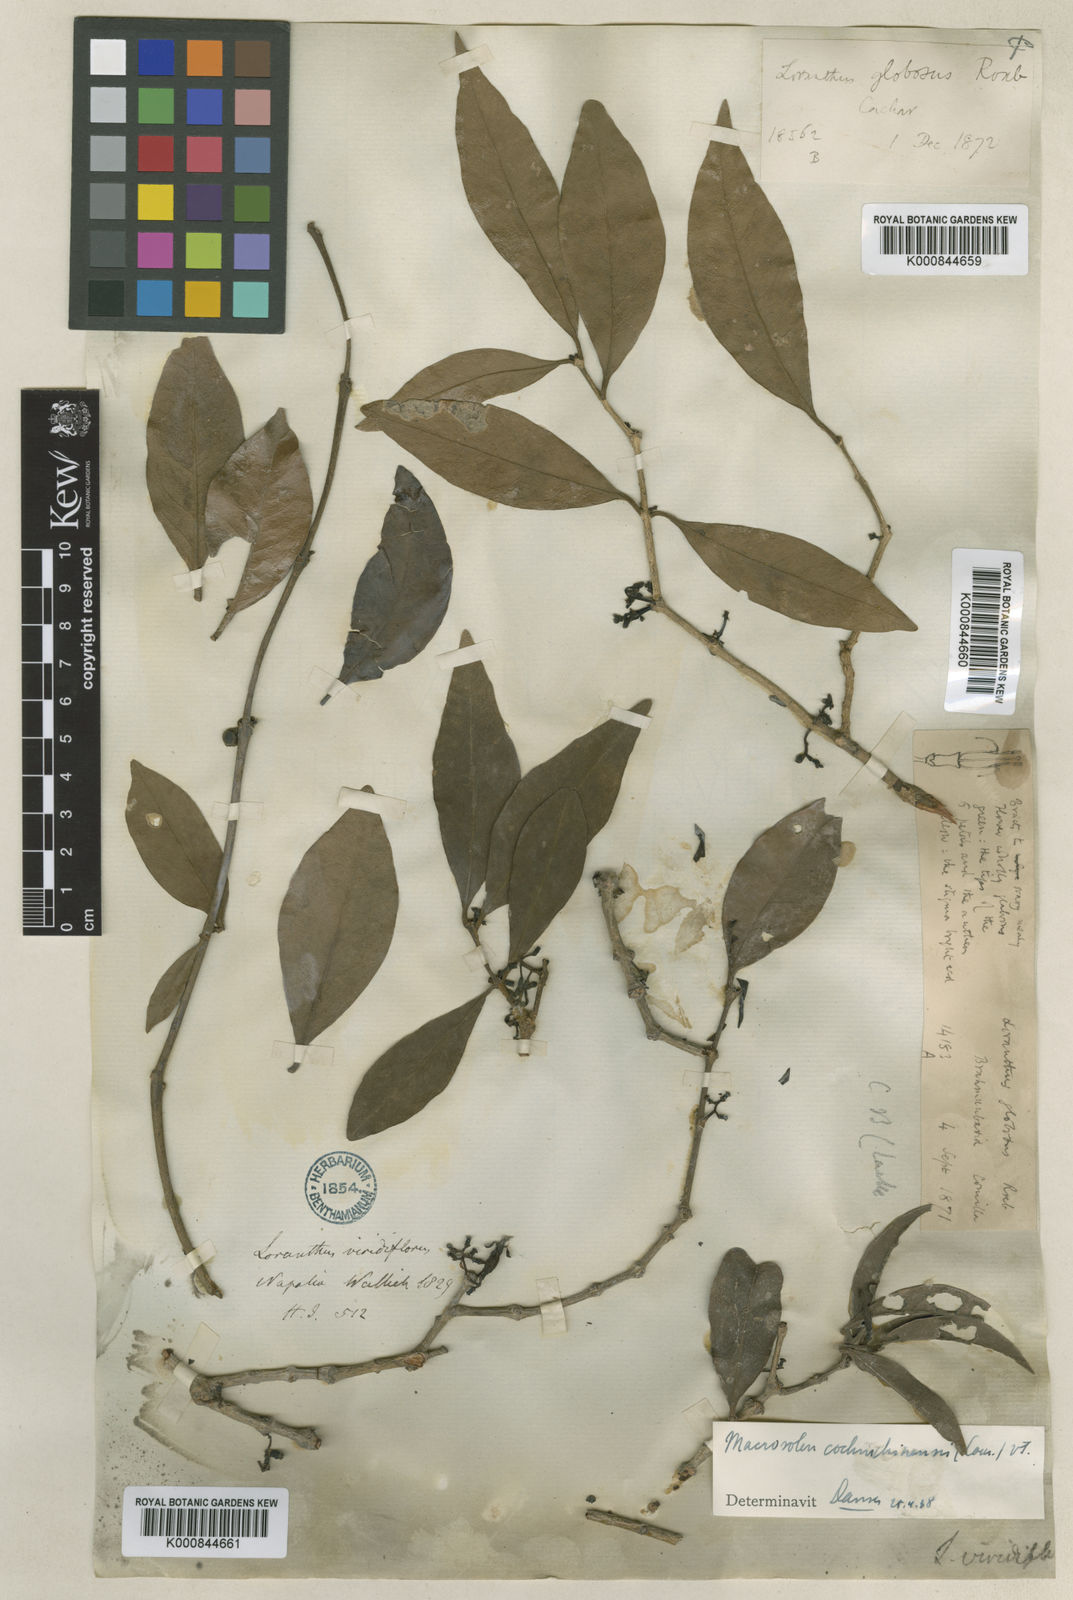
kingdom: Plantae
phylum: Tracheophyta
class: Magnoliopsida
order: Santalales
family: Loranthaceae
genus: Macrosolen
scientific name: Macrosolen globosus
